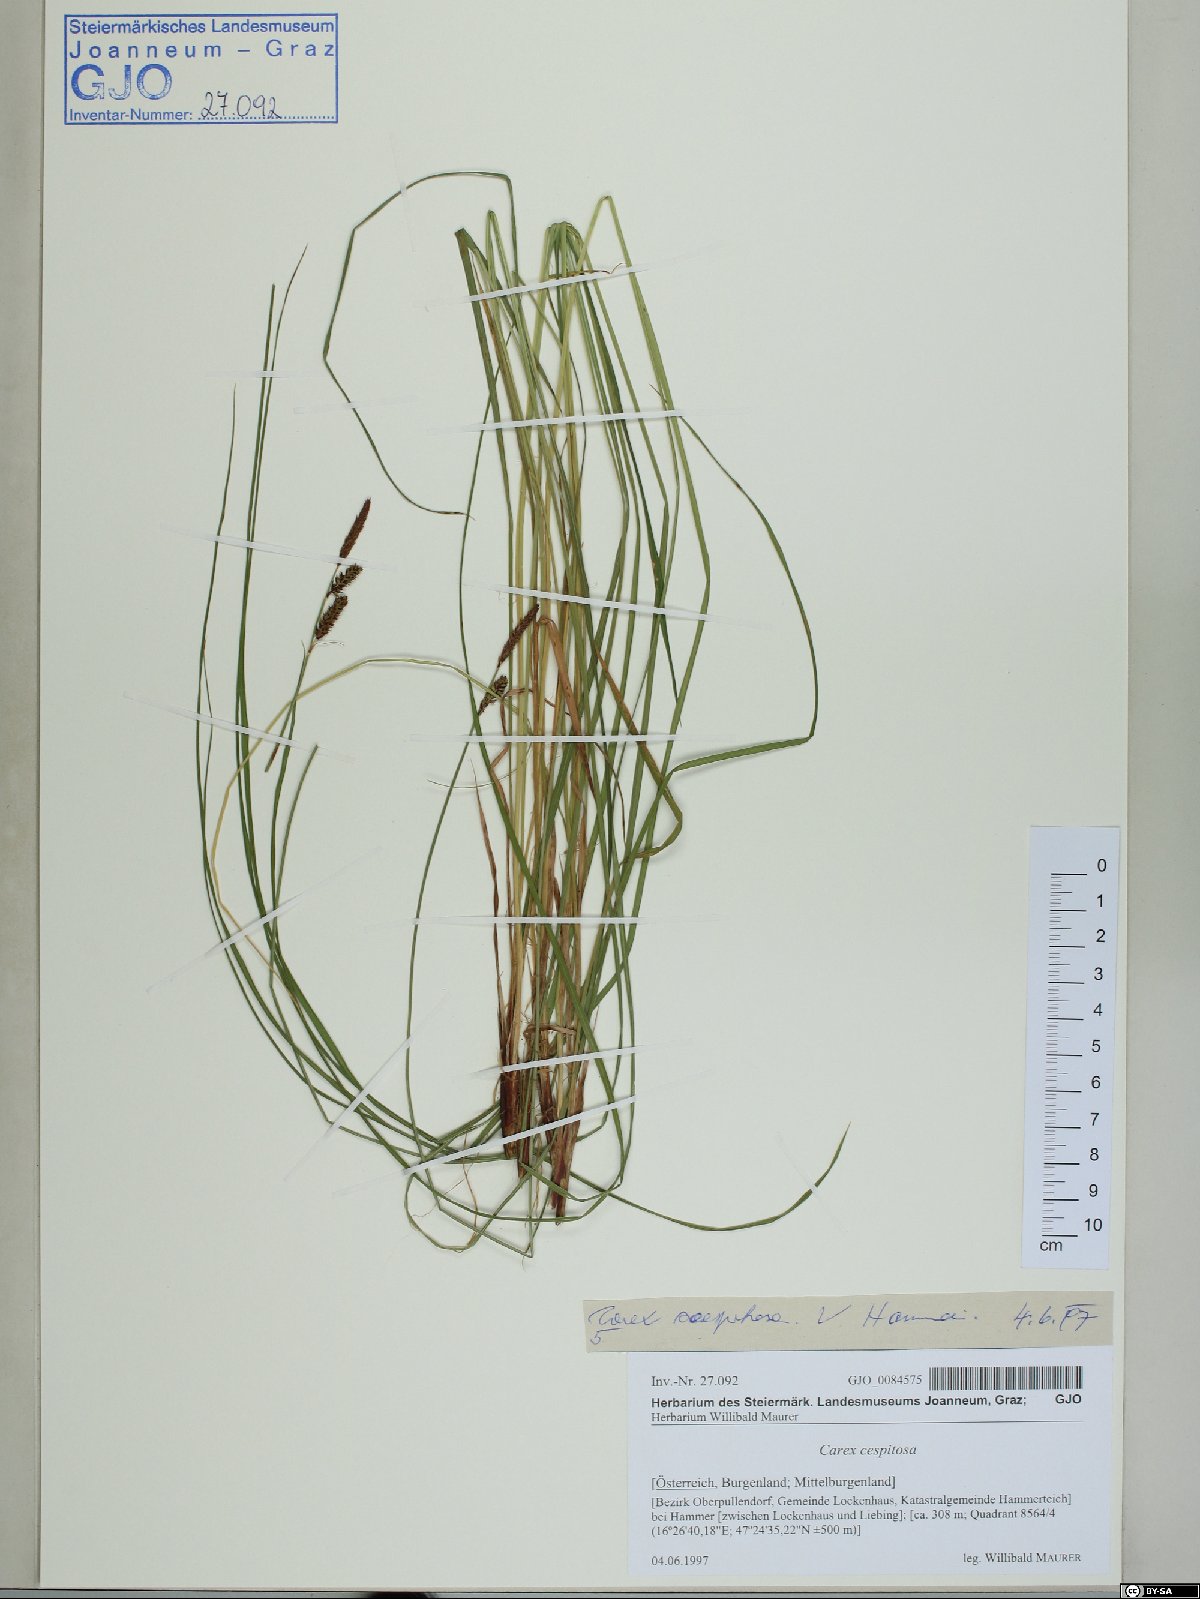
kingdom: Plantae
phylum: Tracheophyta
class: Liliopsida
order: Poales
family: Cyperaceae
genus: Carex
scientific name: Carex cespitosa
